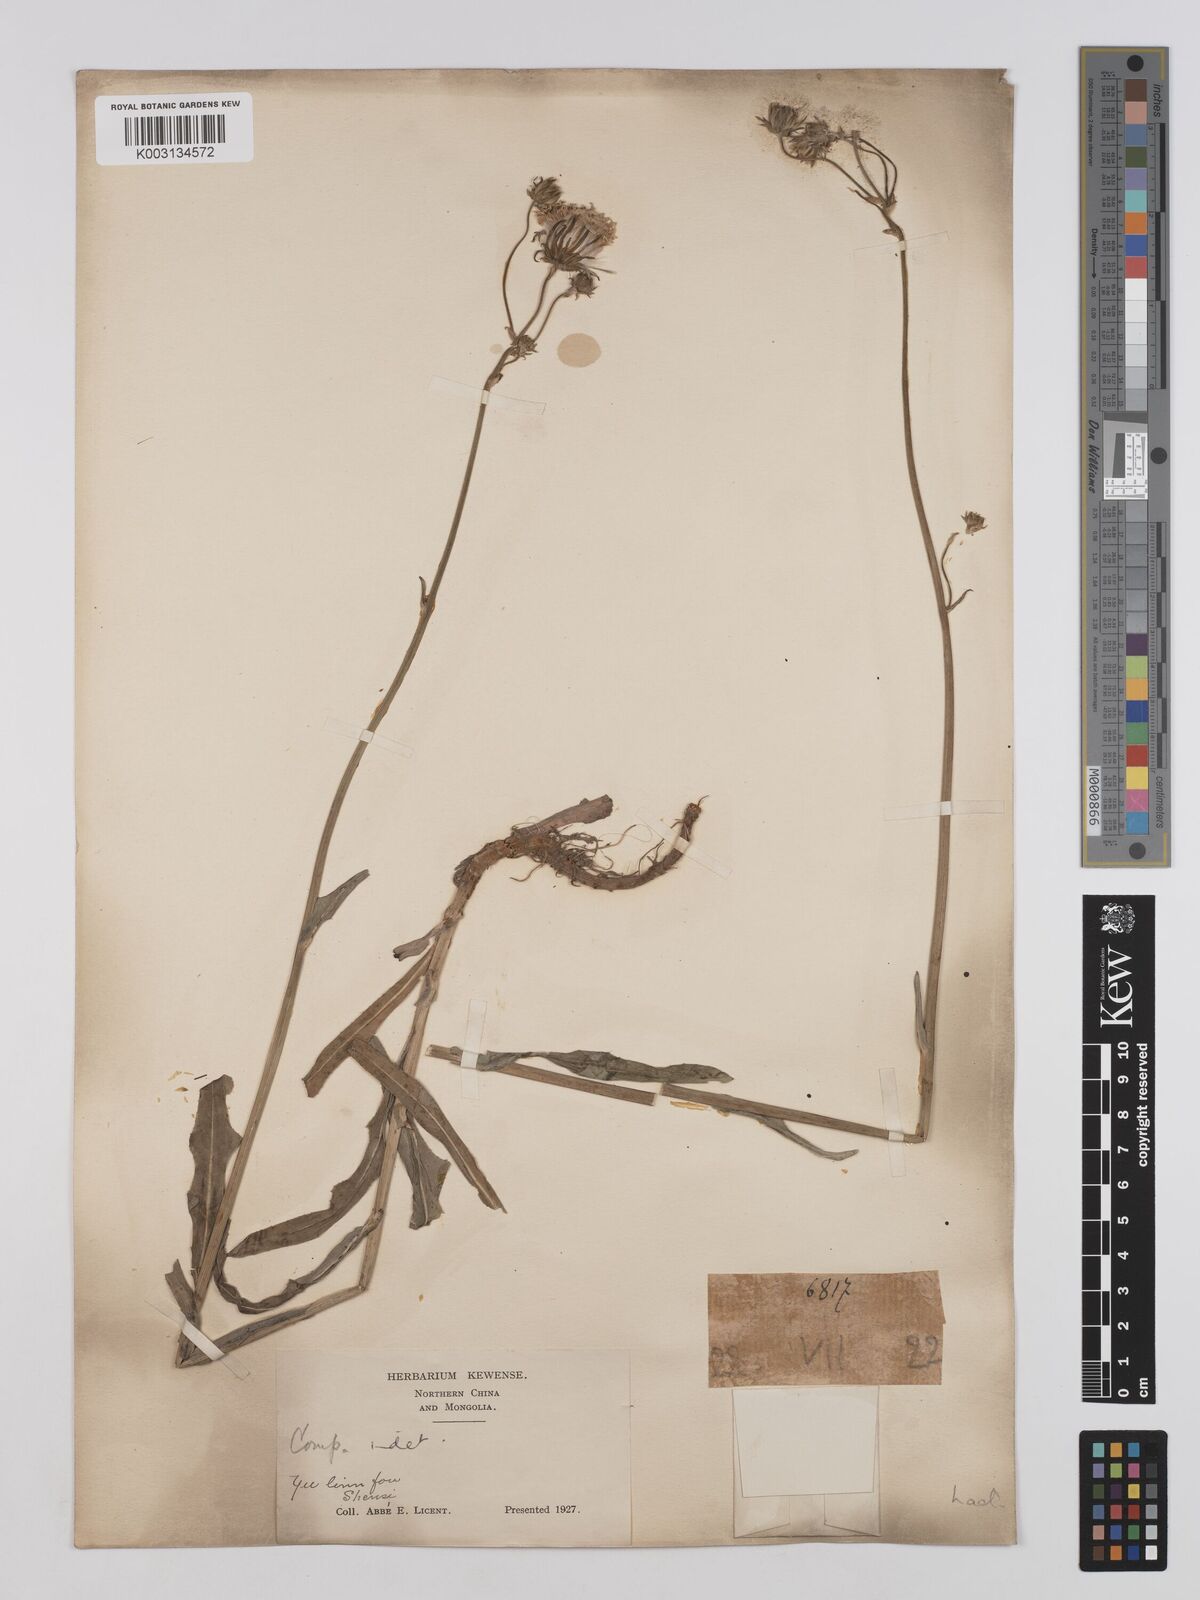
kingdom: Plantae
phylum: Tracheophyta
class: Magnoliopsida
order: Asterales
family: Asteraceae
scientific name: Asteraceae
